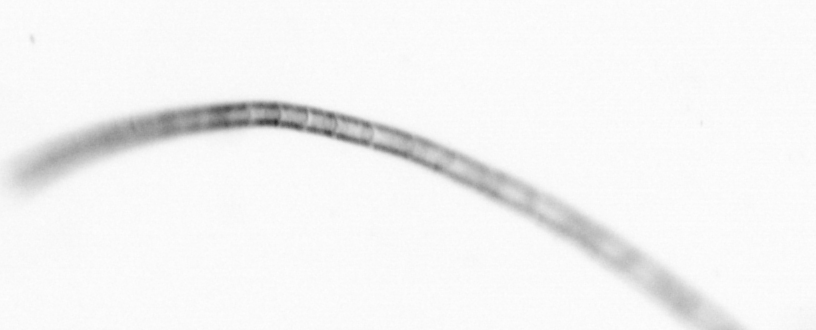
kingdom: Chromista
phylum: Ochrophyta
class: Bacillariophyceae
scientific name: Bacillariophyceae
